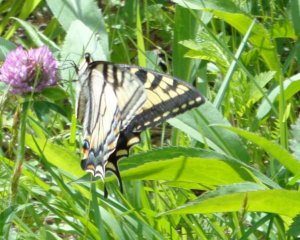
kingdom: Animalia
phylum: Arthropoda
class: Insecta
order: Lepidoptera
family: Papilionidae
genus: Pterourus
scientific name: Pterourus canadensis
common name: Canadian Tiger Swallowtail
